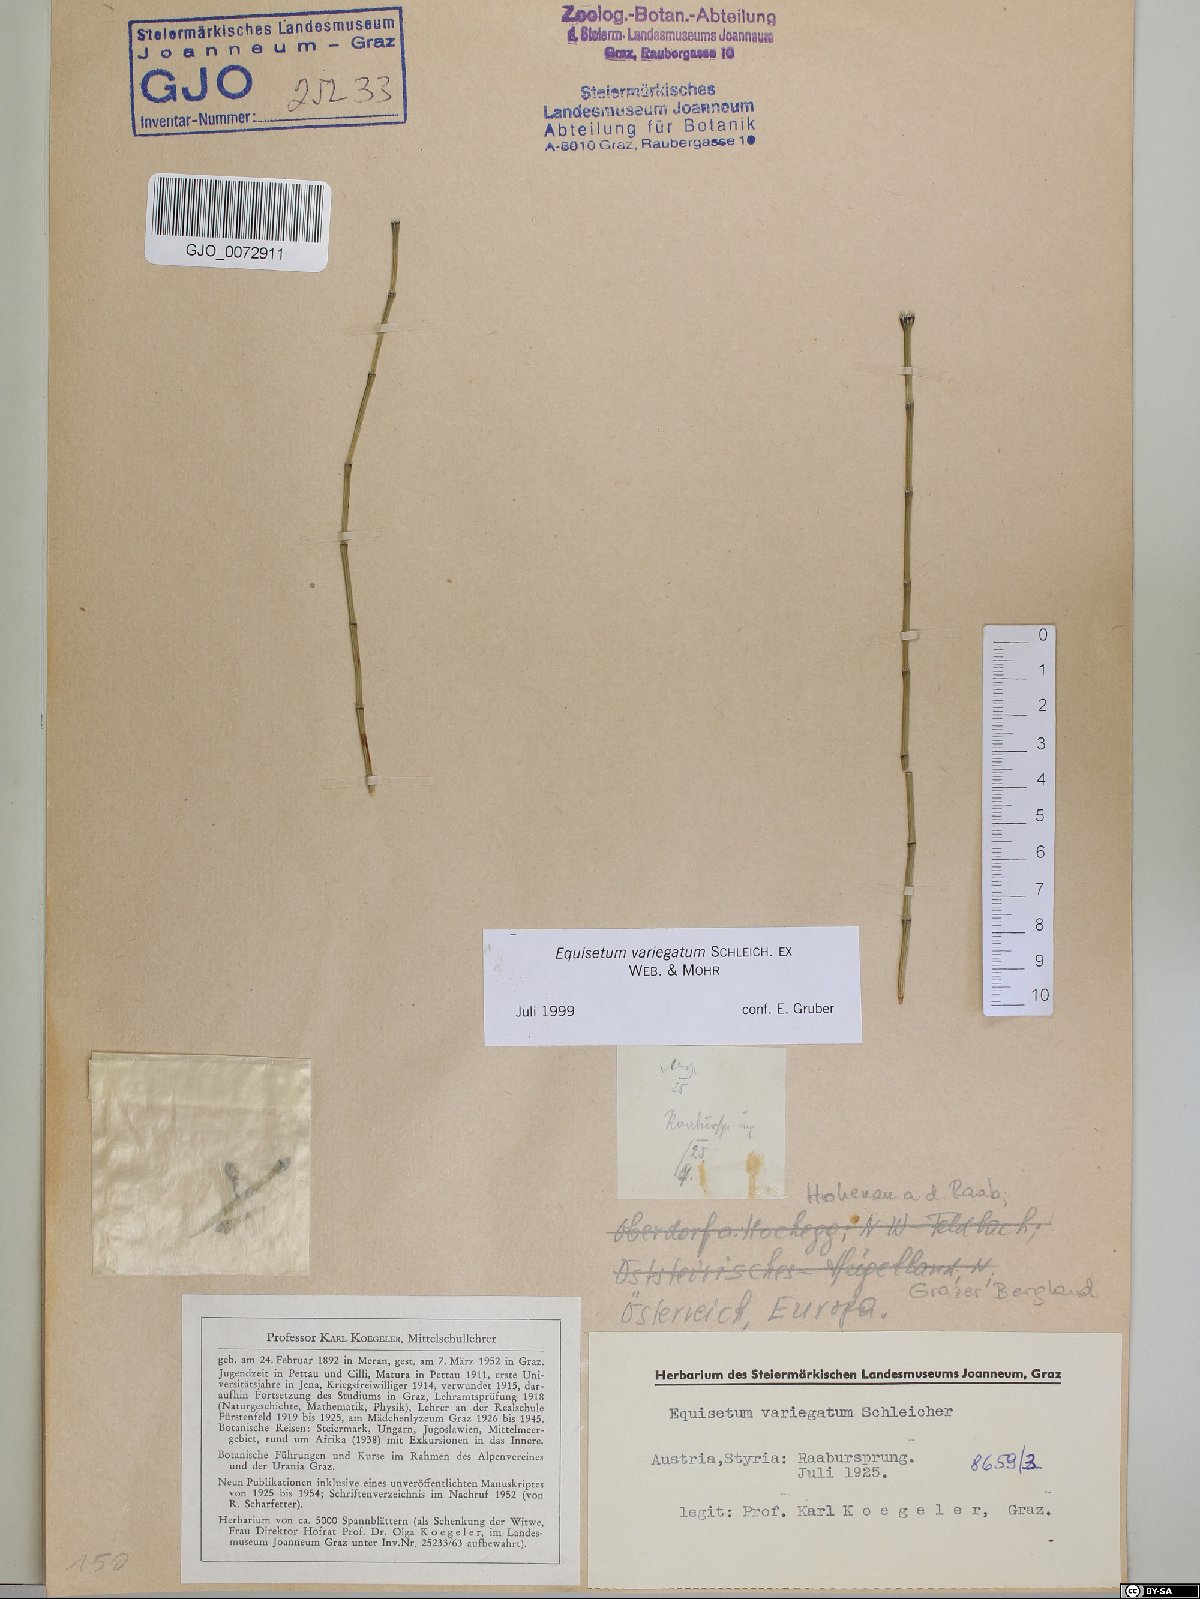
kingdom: Plantae
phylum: Tracheophyta
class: Polypodiopsida
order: Equisetales
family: Equisetaceae
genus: Equisetum
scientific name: Equisetum variegatum
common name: Variegated horsetail
